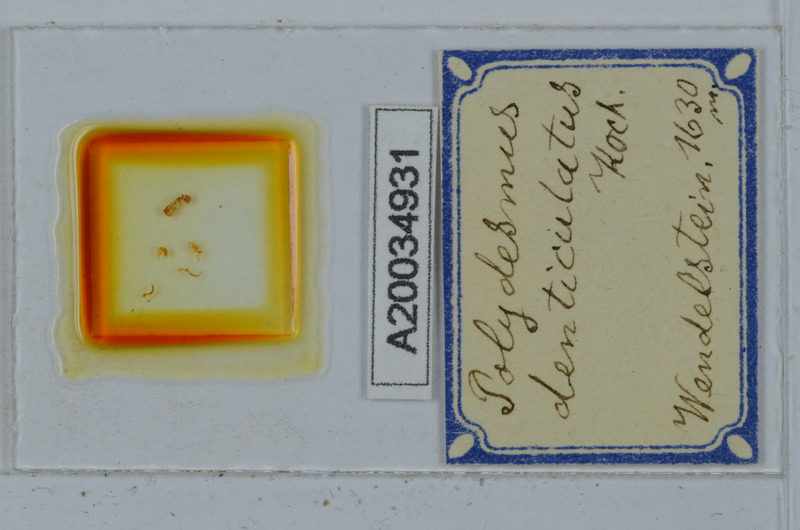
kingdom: Animalia
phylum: Arthropoda
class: Diplopoda
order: Polydesmida
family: Polydesmidae
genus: Polydesmus
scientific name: Polydesmus denticulatus
